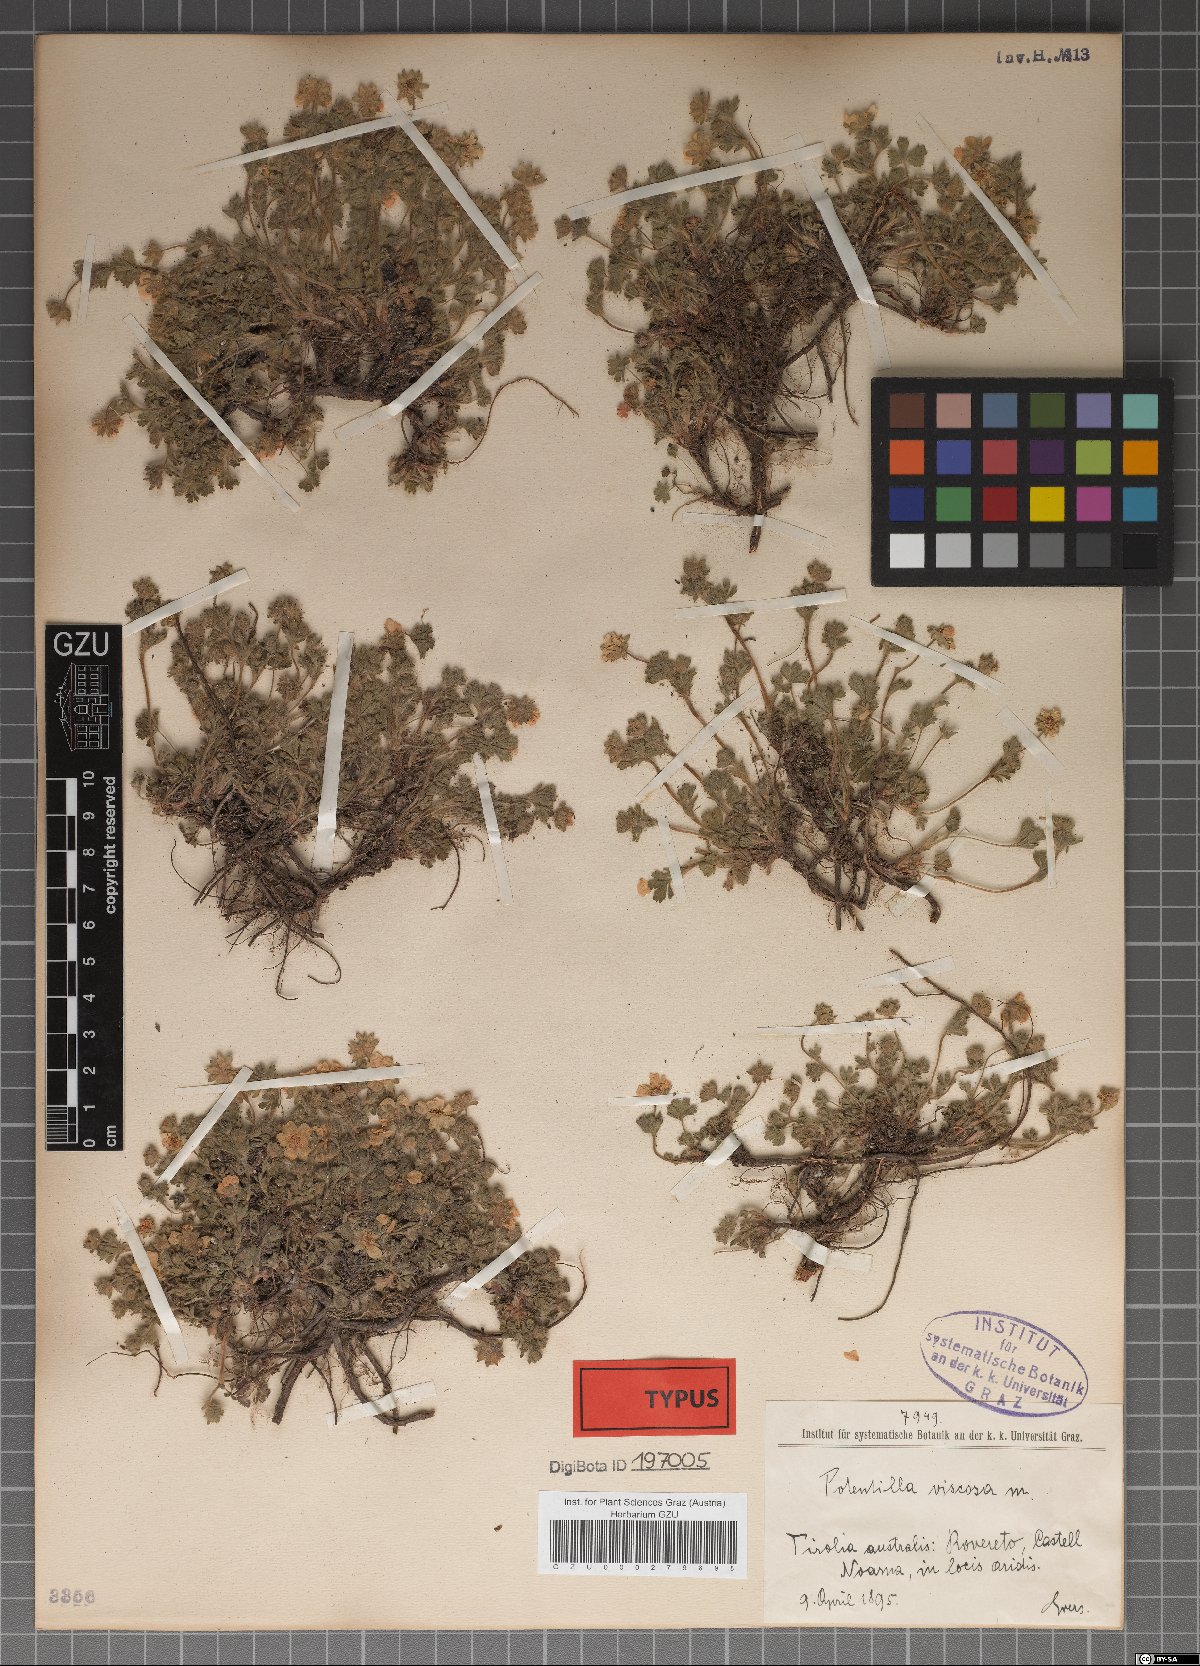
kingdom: Plantae
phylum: Tracheophyta
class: Magnoliopsida
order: Rosales
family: Rosaceae
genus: Potentilla
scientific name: Potentilla pusilla
